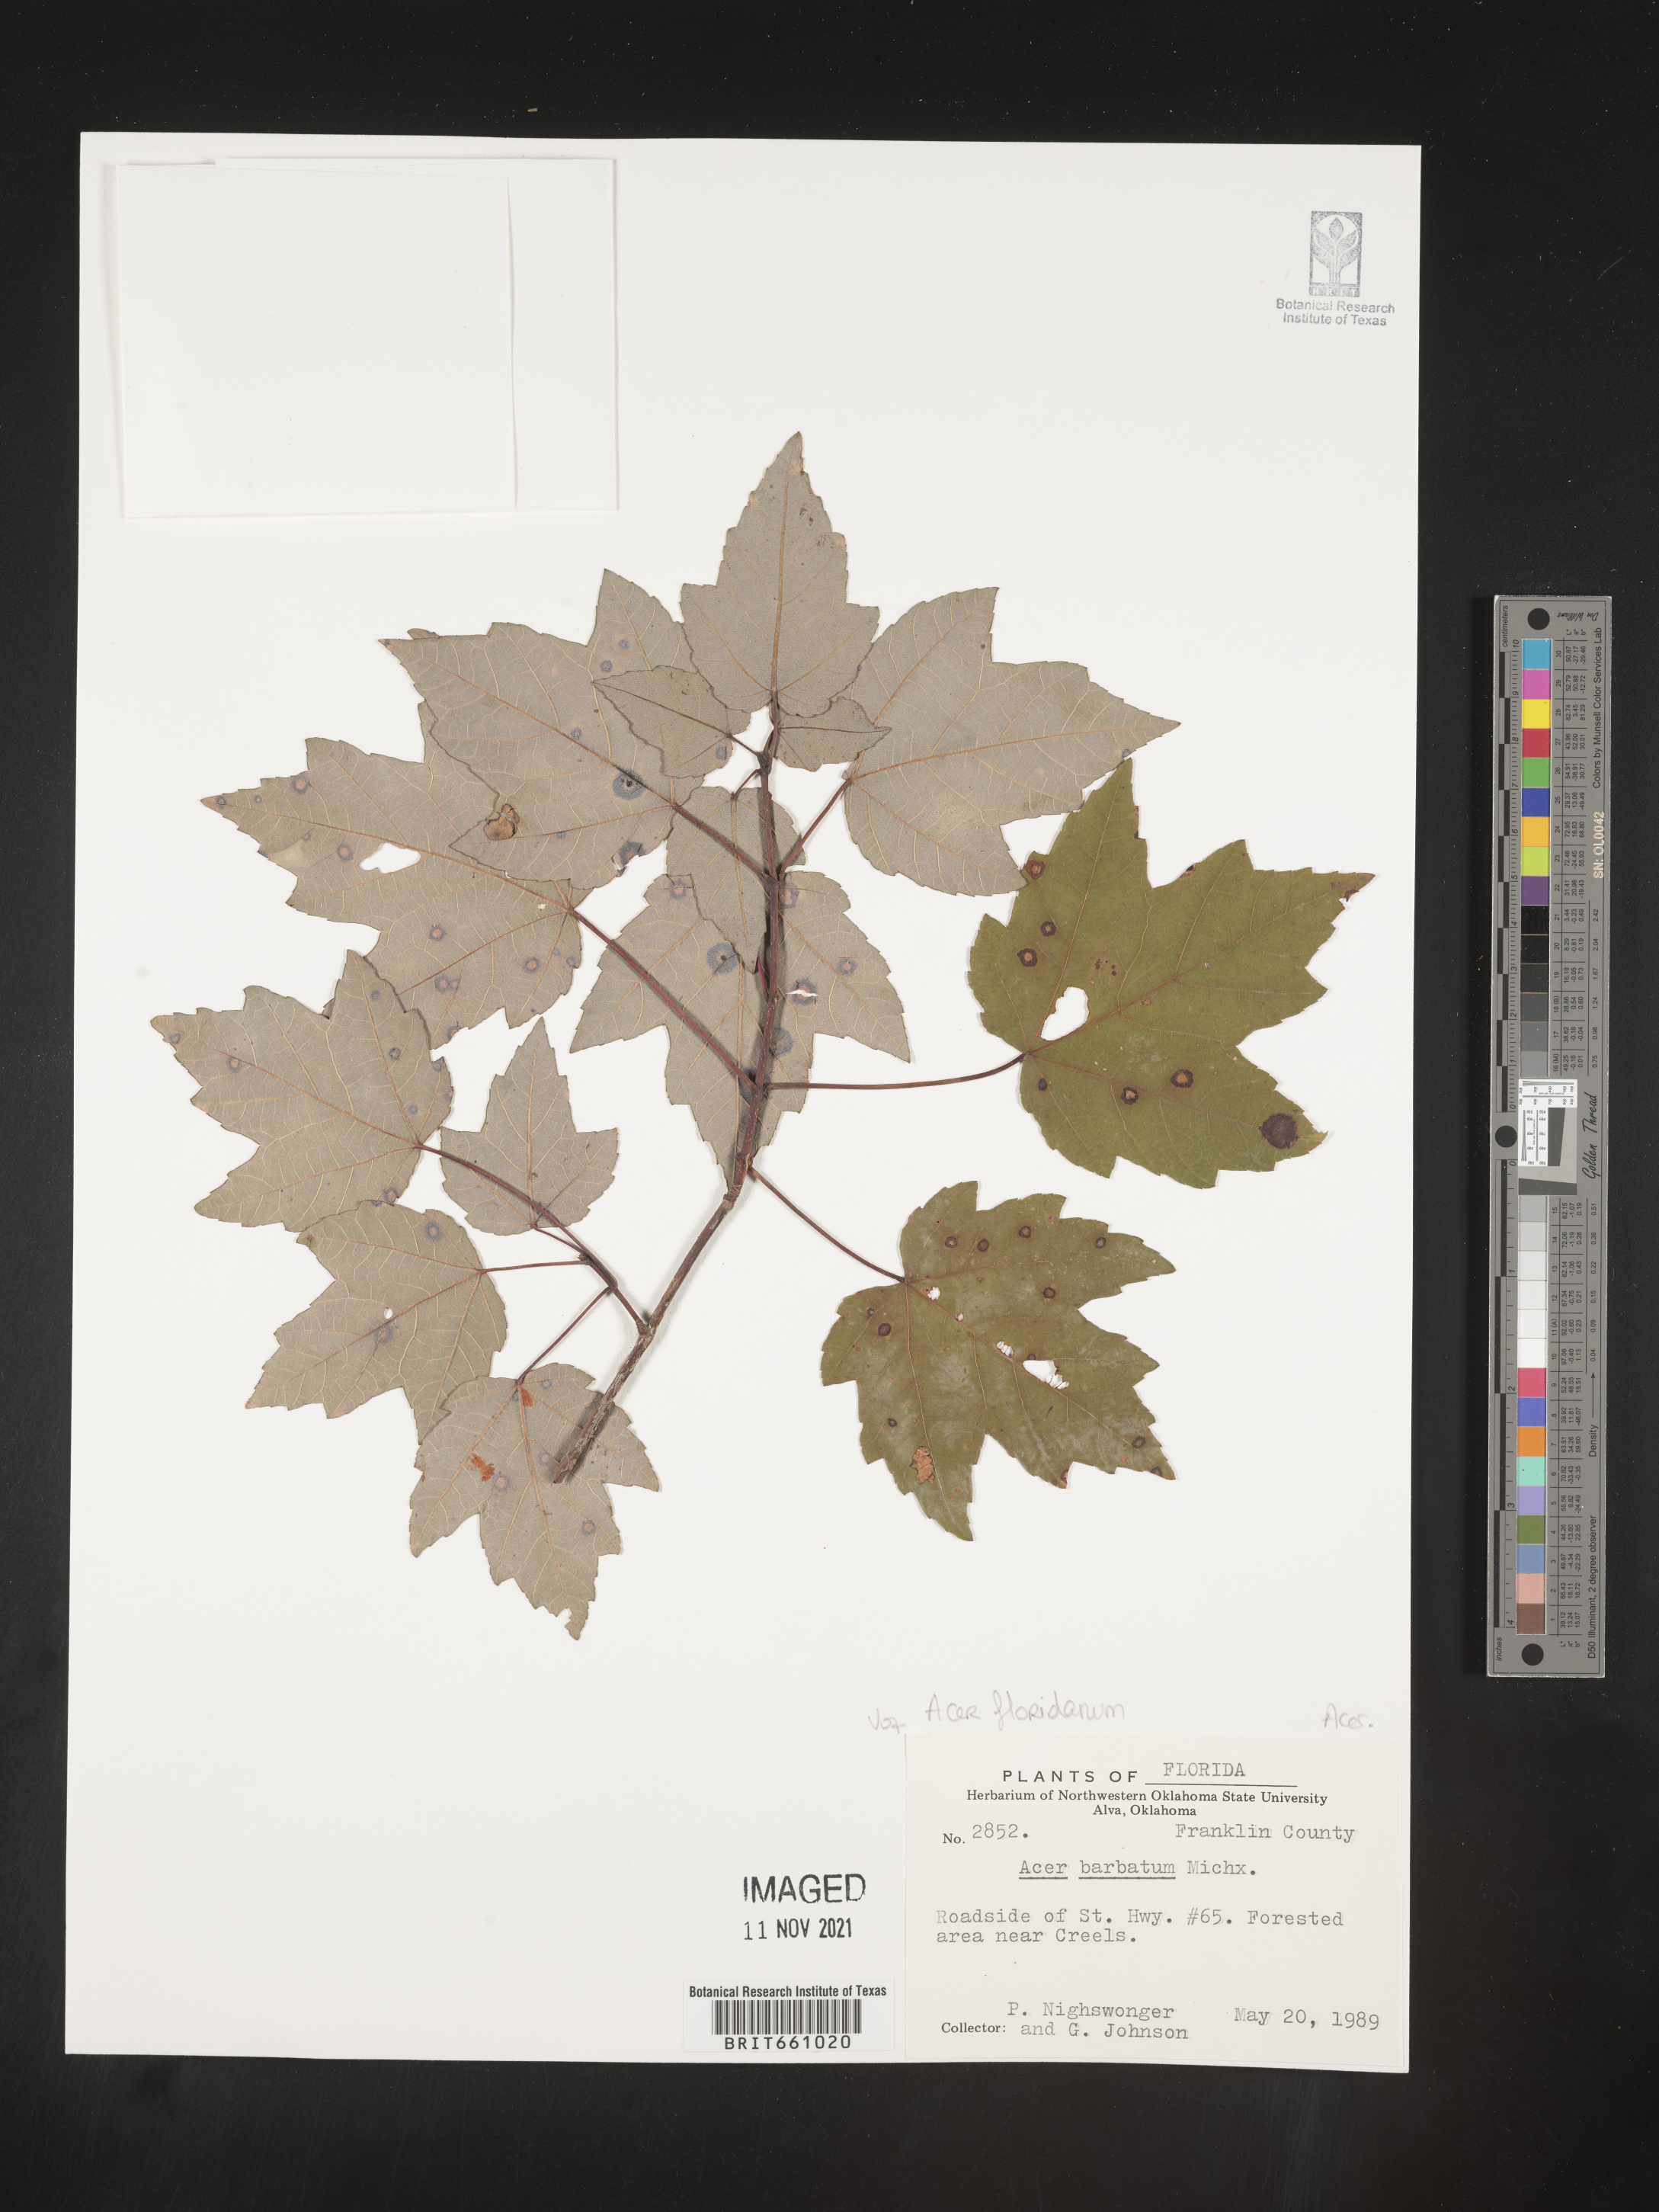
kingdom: Plantae
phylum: Tracheophyta
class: Magnoliopsida
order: Sapindales
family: Sapindaceae
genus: Acer
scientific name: Acer
